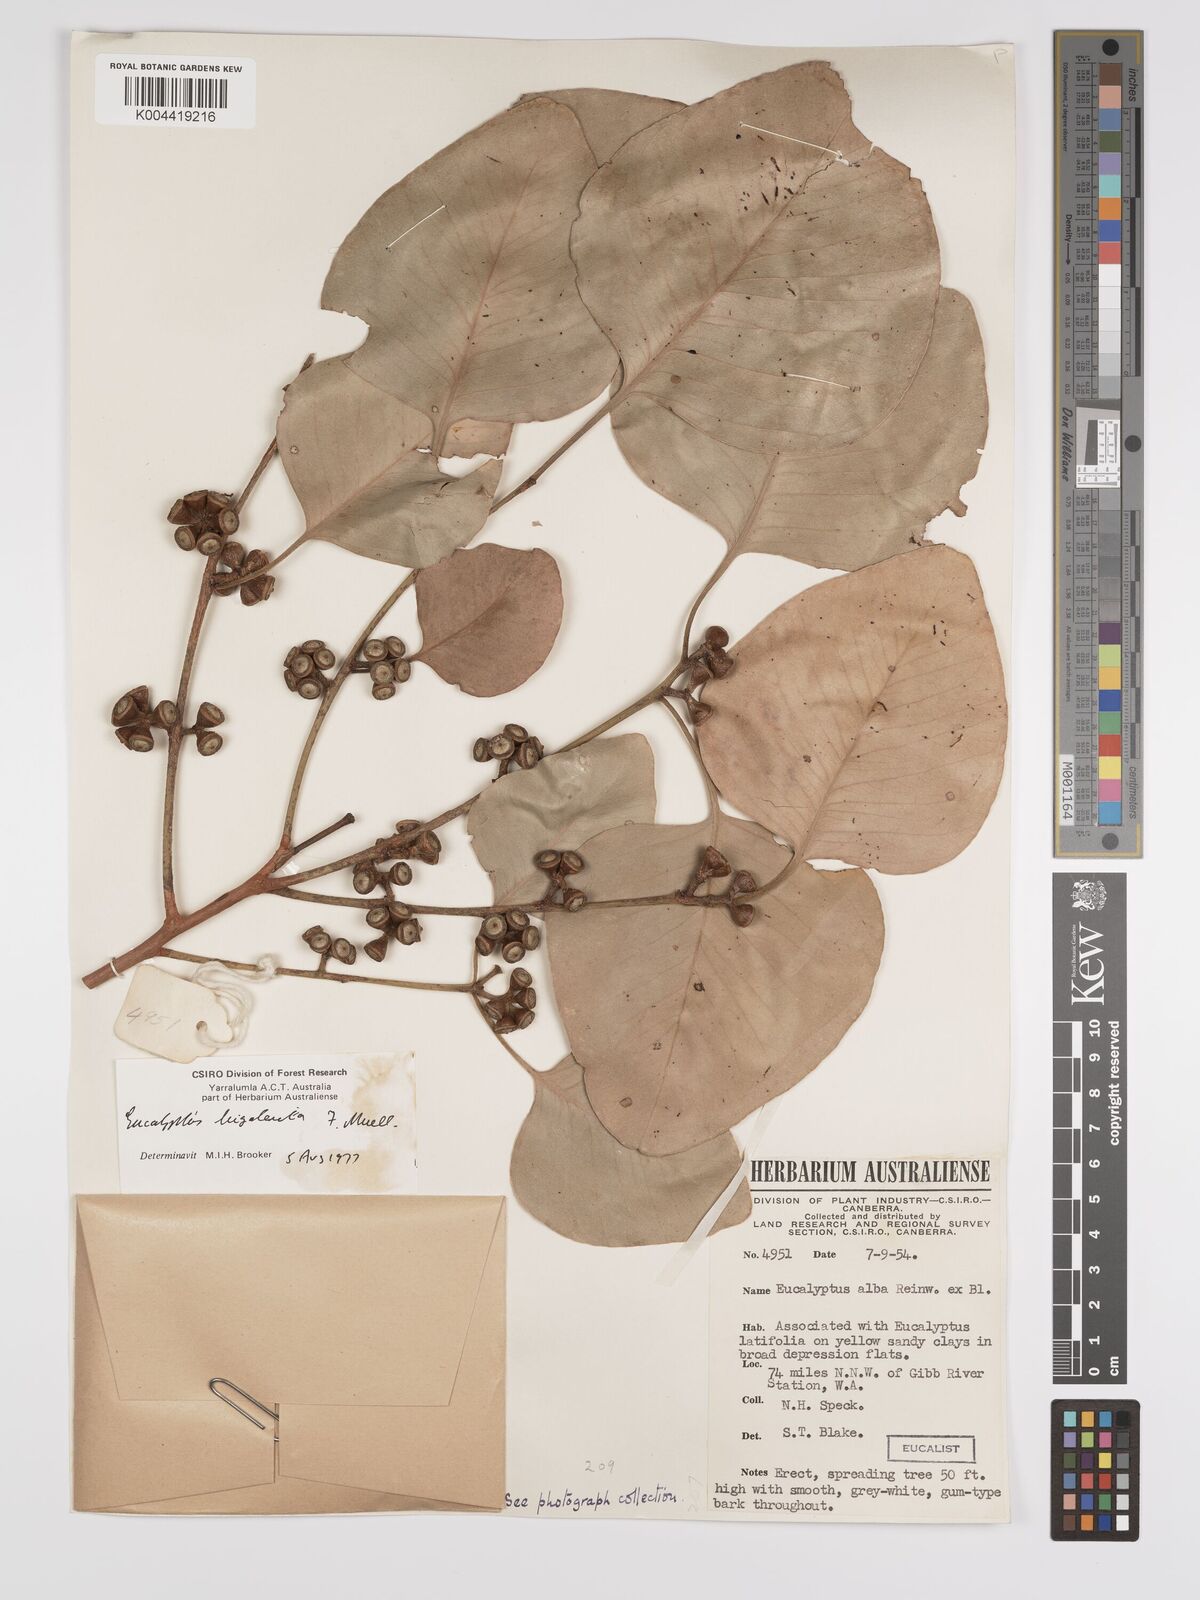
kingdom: Plantae
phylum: Tracheophyta
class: Magnoliopsida
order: Myrtales
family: Myrtaceae
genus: Eucalyptus
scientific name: Eucalyptus bigalerita
